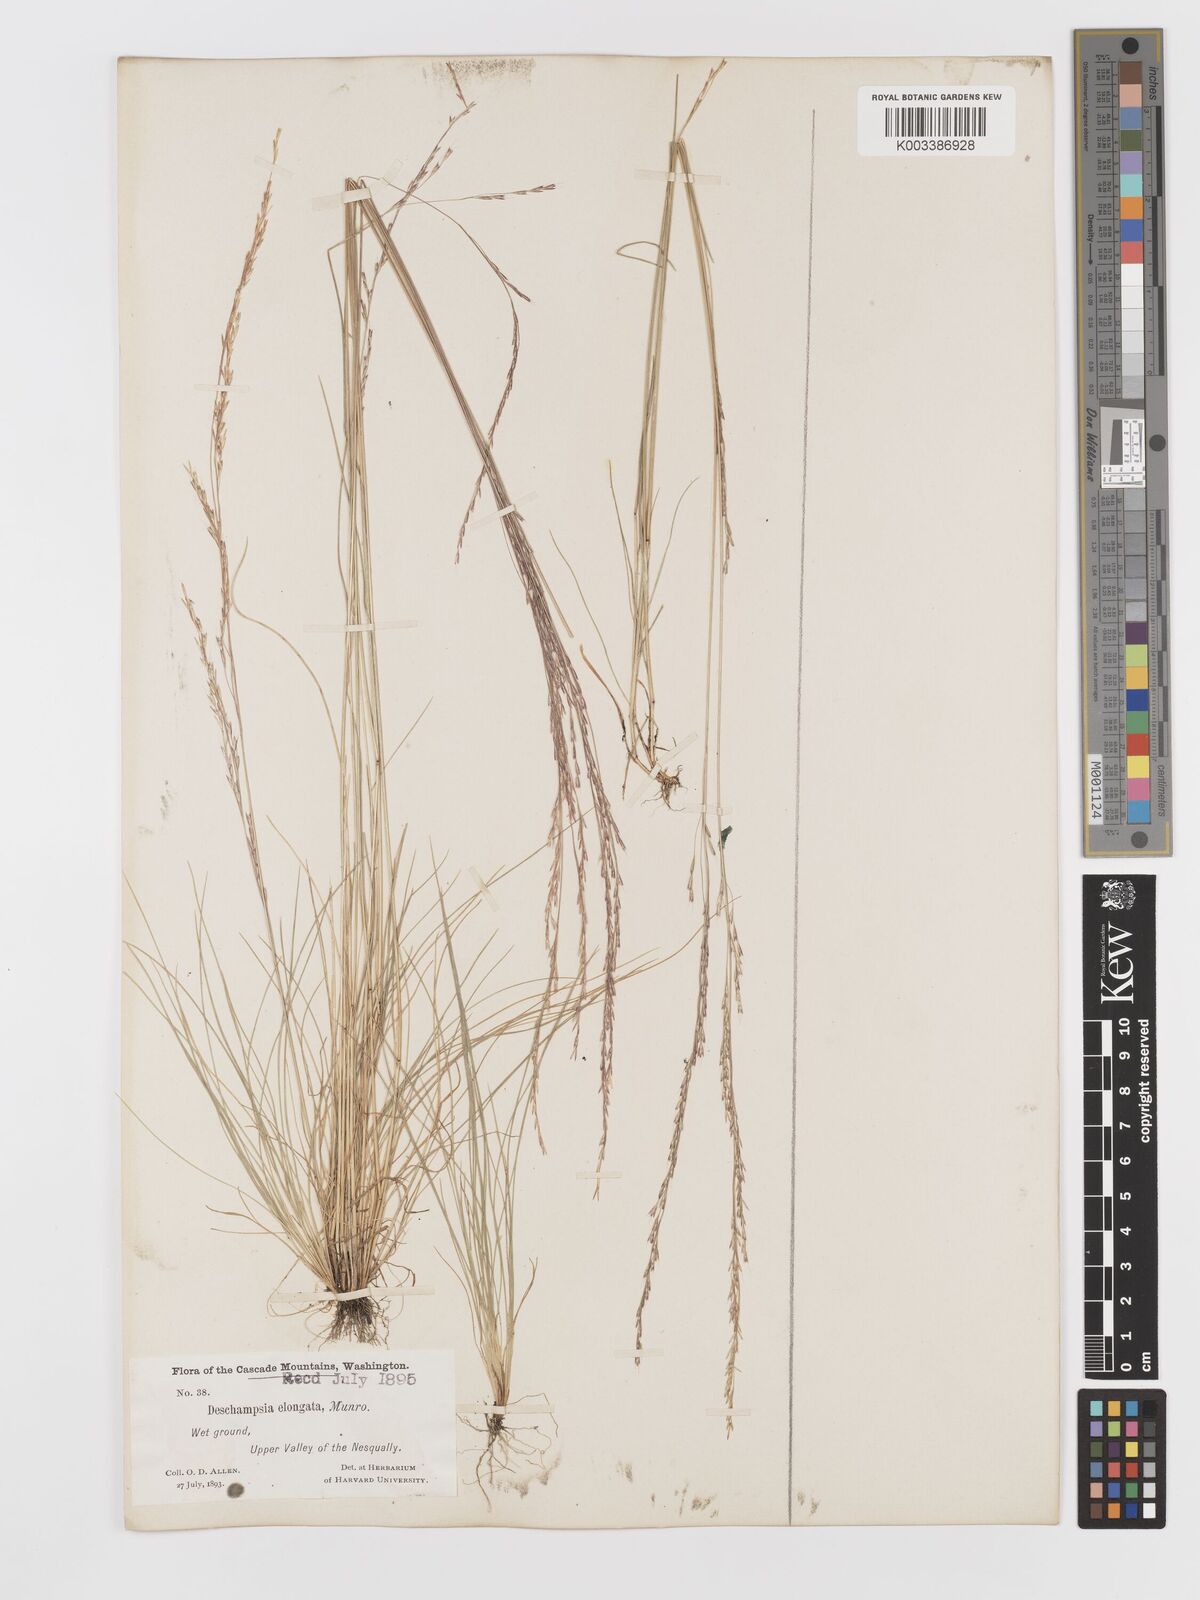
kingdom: Plantae
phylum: Tracheophyta
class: Liliopsida
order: Poales
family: Poaceae
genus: Deschampsia
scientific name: Deschampsia elongata
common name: Slender hairgrass
